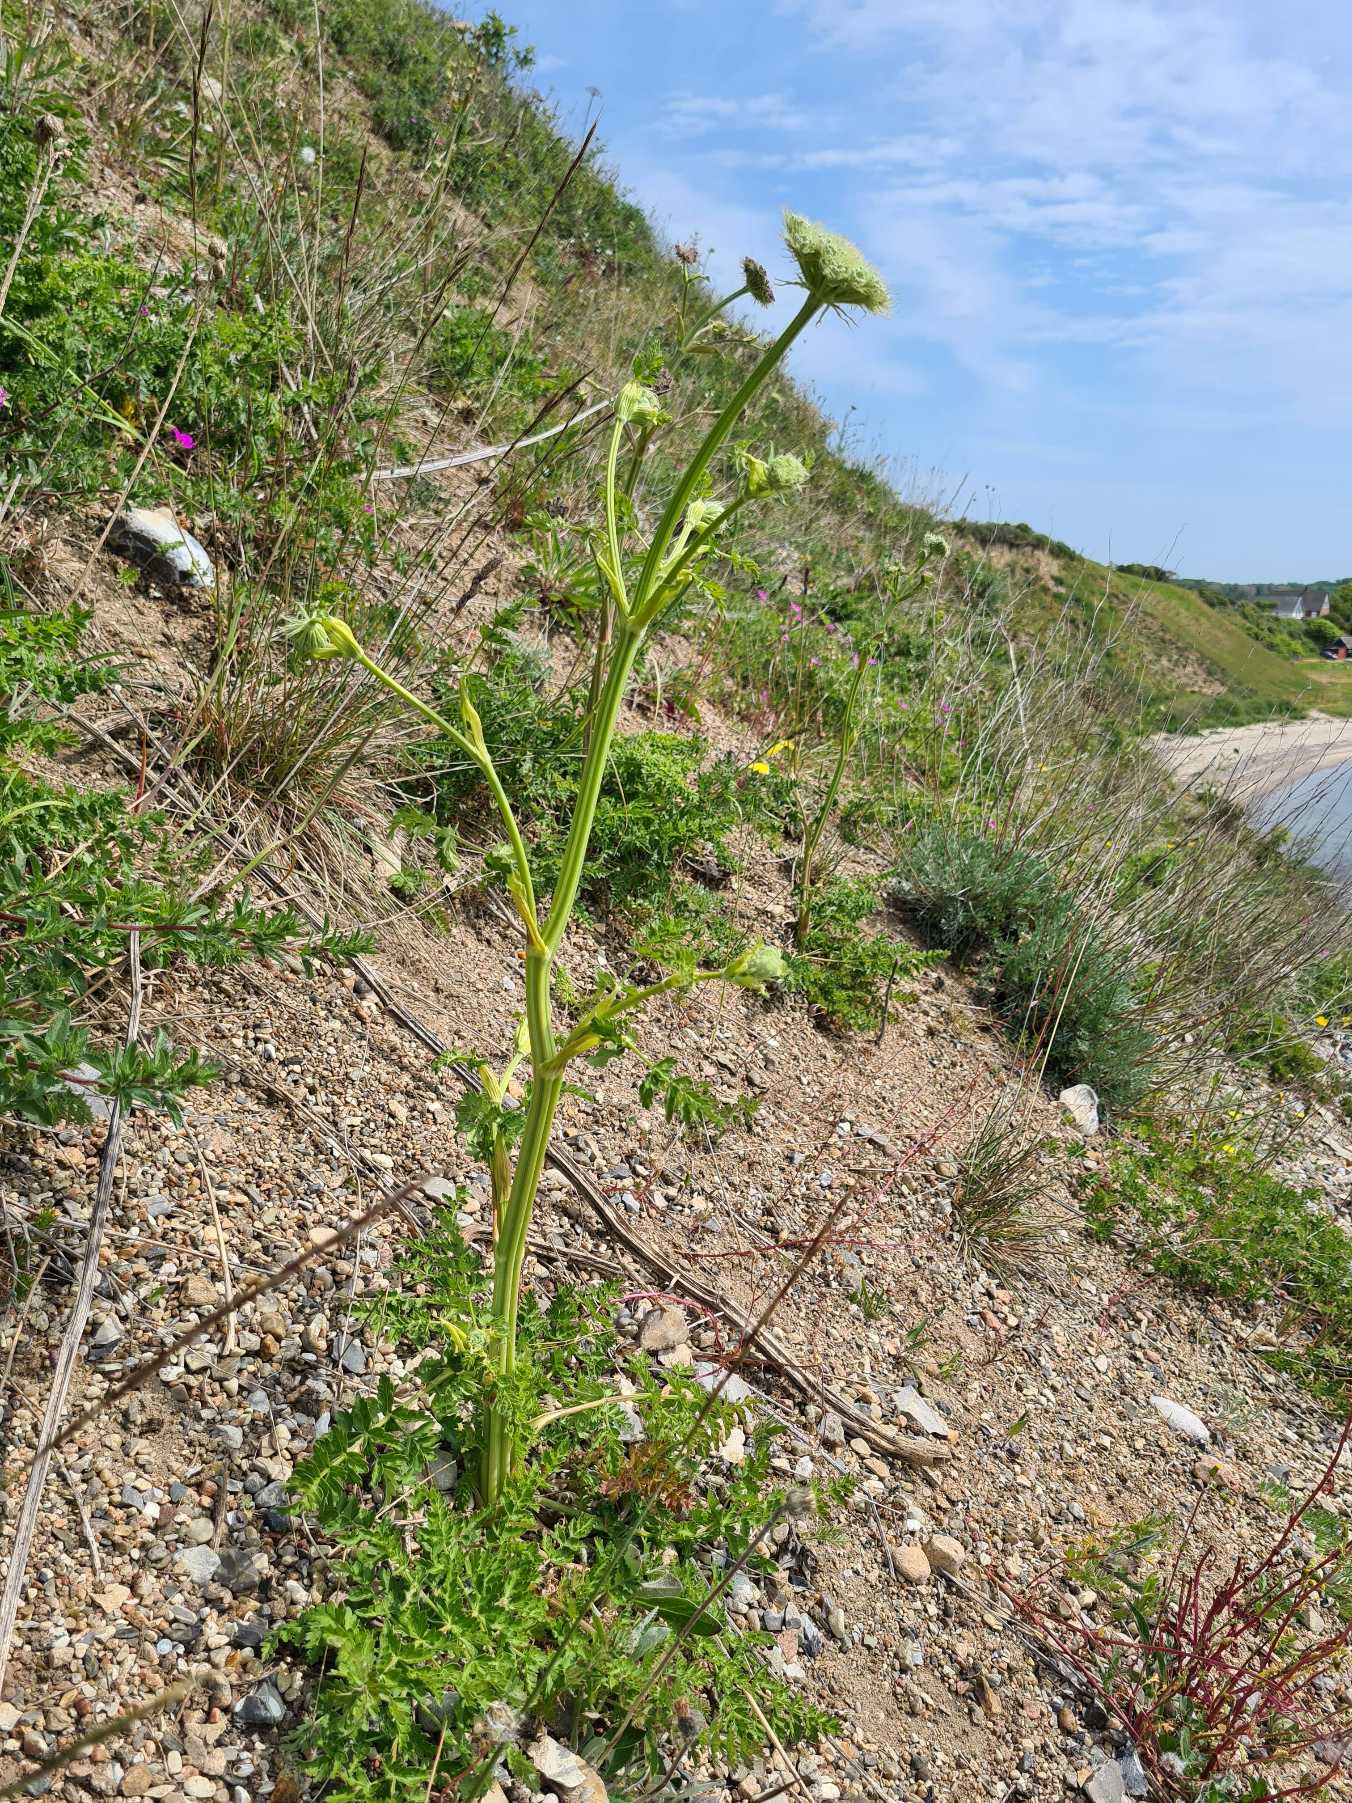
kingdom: Plantae
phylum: Tracheophyta
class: Magnoliopsida
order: Apiales
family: Apiaceae
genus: Seseli
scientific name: Seseli libanotis
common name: Hjorterod
